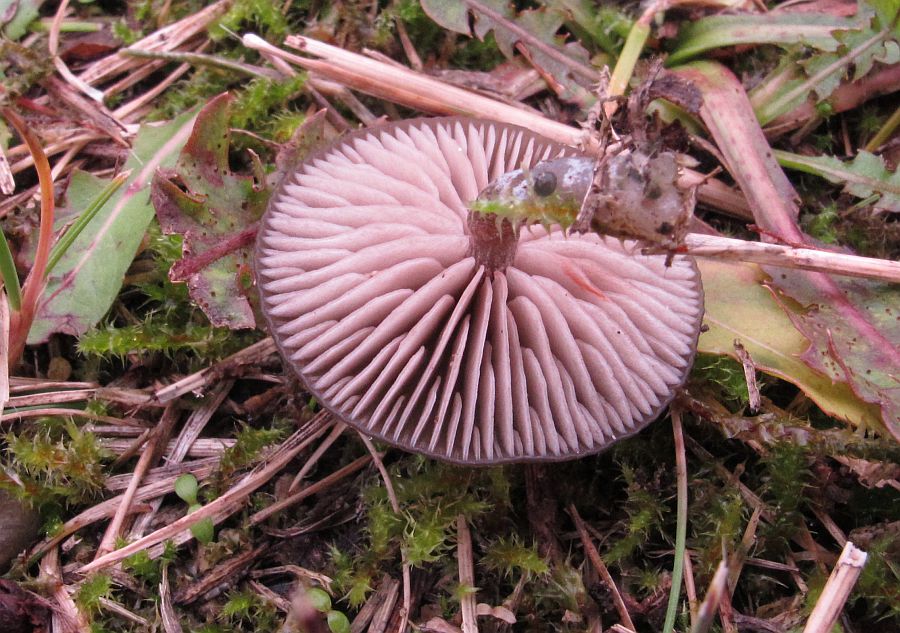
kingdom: Fungi
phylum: Basidiomycota
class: Agaricomycetes
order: Agaricales
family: Entolomataceae
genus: Entoloma
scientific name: Entoloma
